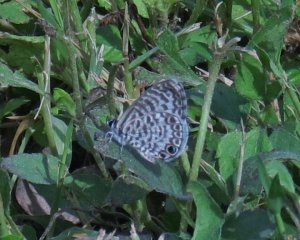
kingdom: Animalia
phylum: Arthropoda
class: Insecta
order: Lepidoptera
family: Lycaenidae
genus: Leptotes
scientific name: Leptotes cassius
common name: Cassius Blue
